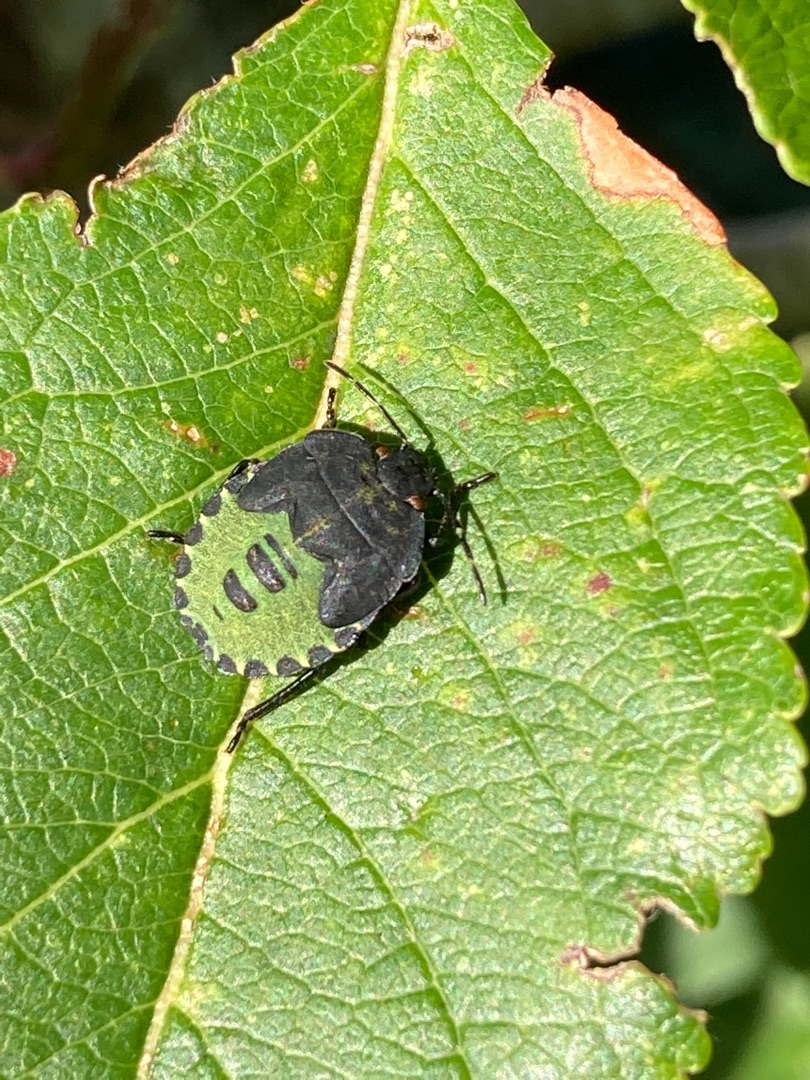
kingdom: Animalia
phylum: Arthropoda
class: Insecta
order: Hemiptera
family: Pentatomidae
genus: Palomena
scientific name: Palomena prasina
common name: Grøn bredtæge
